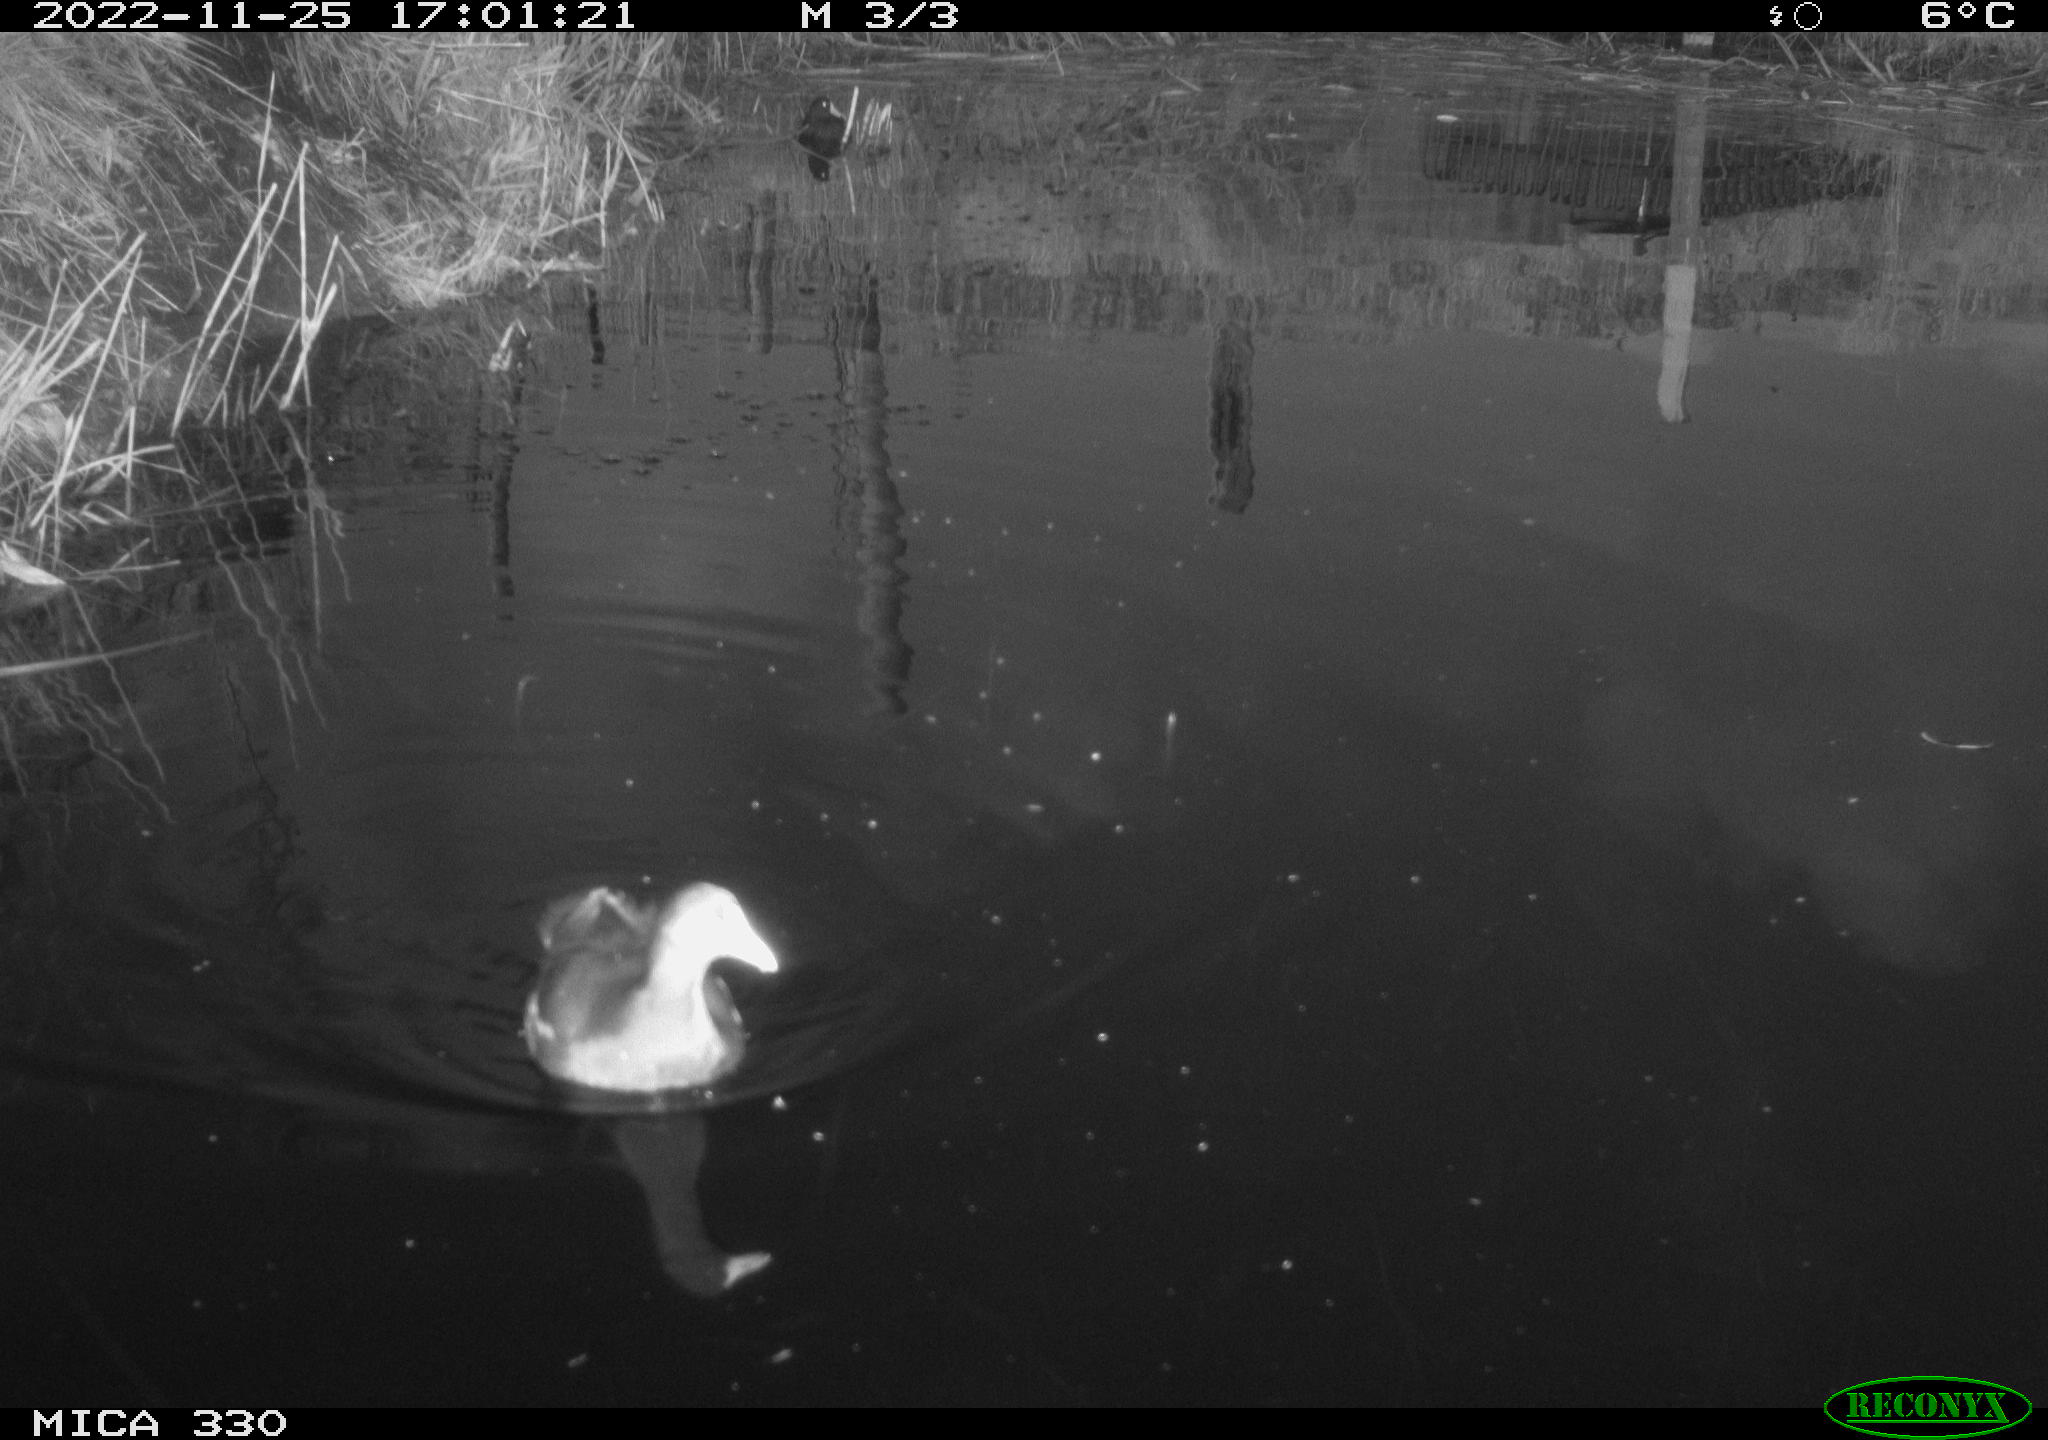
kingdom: Animalia
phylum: Chordata
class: Aves
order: Gruiformes
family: Rallidae
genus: Gallinula
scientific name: Gallinula chloropus
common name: Common moorhen
